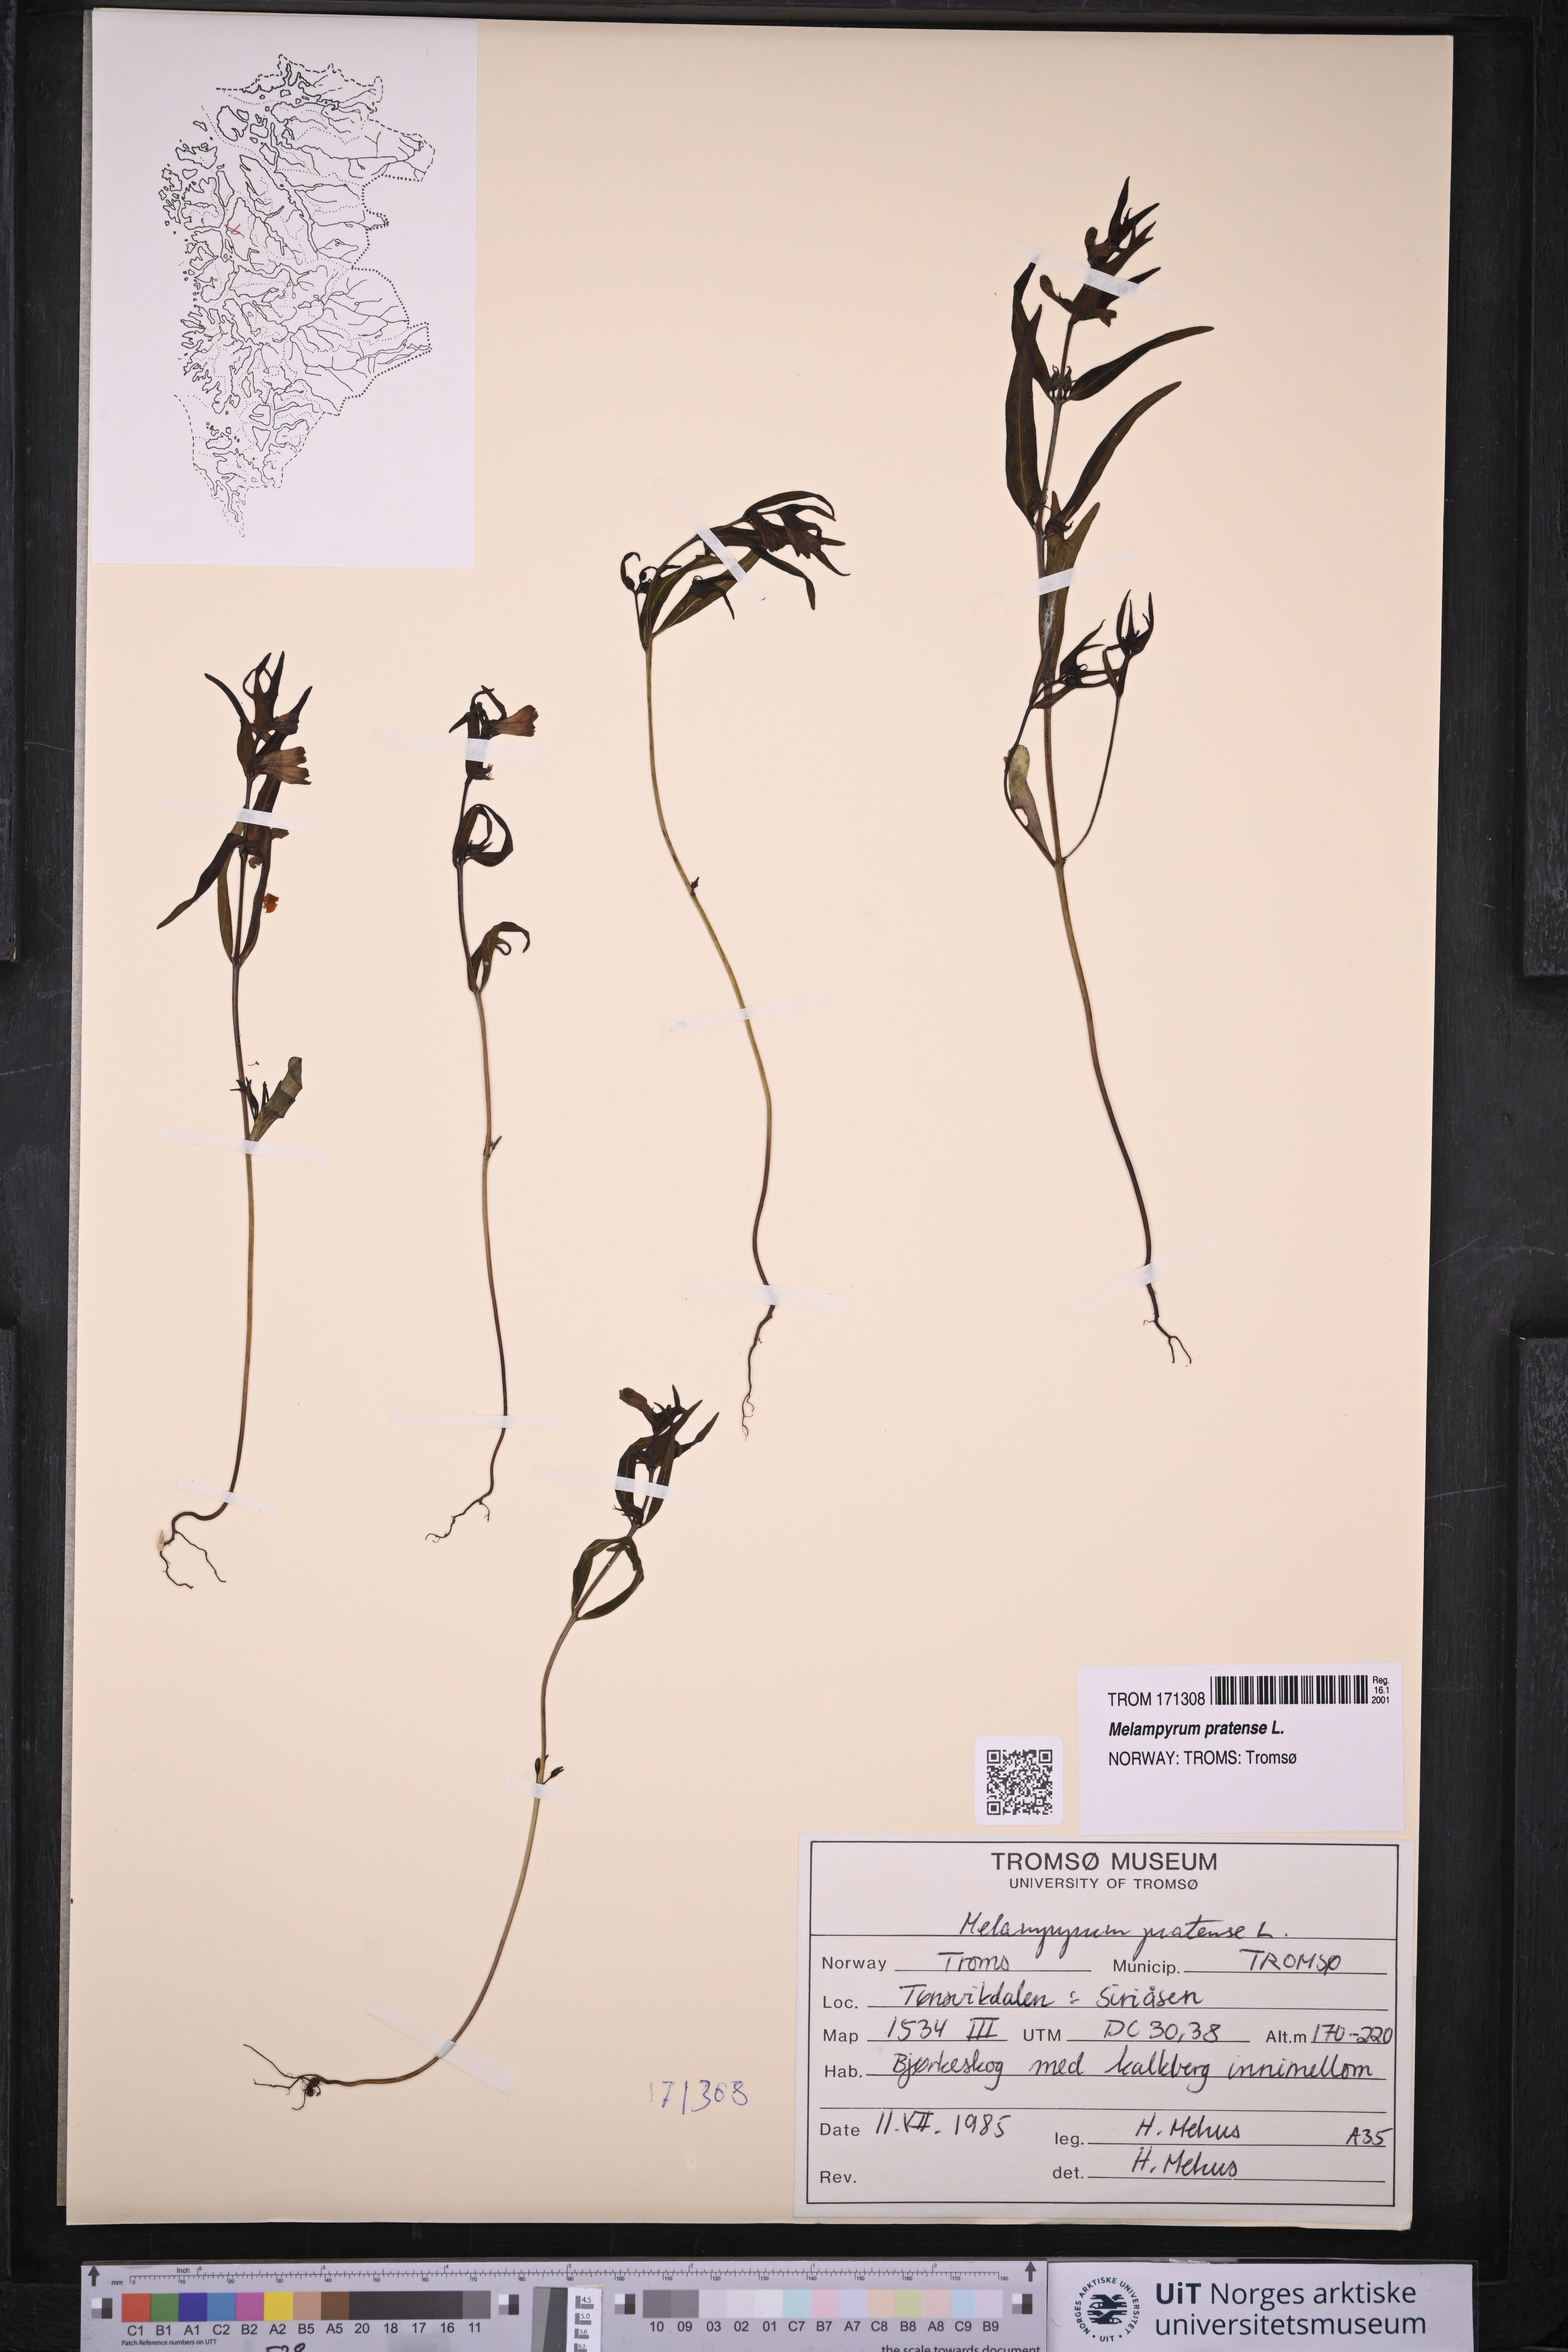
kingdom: Plantae
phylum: Tracheophyta
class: Magnoliopsida
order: Lamiales
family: Orobanchaceae
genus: Melampyrum
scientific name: Melampyrum pratense
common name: Common cow-wheat
